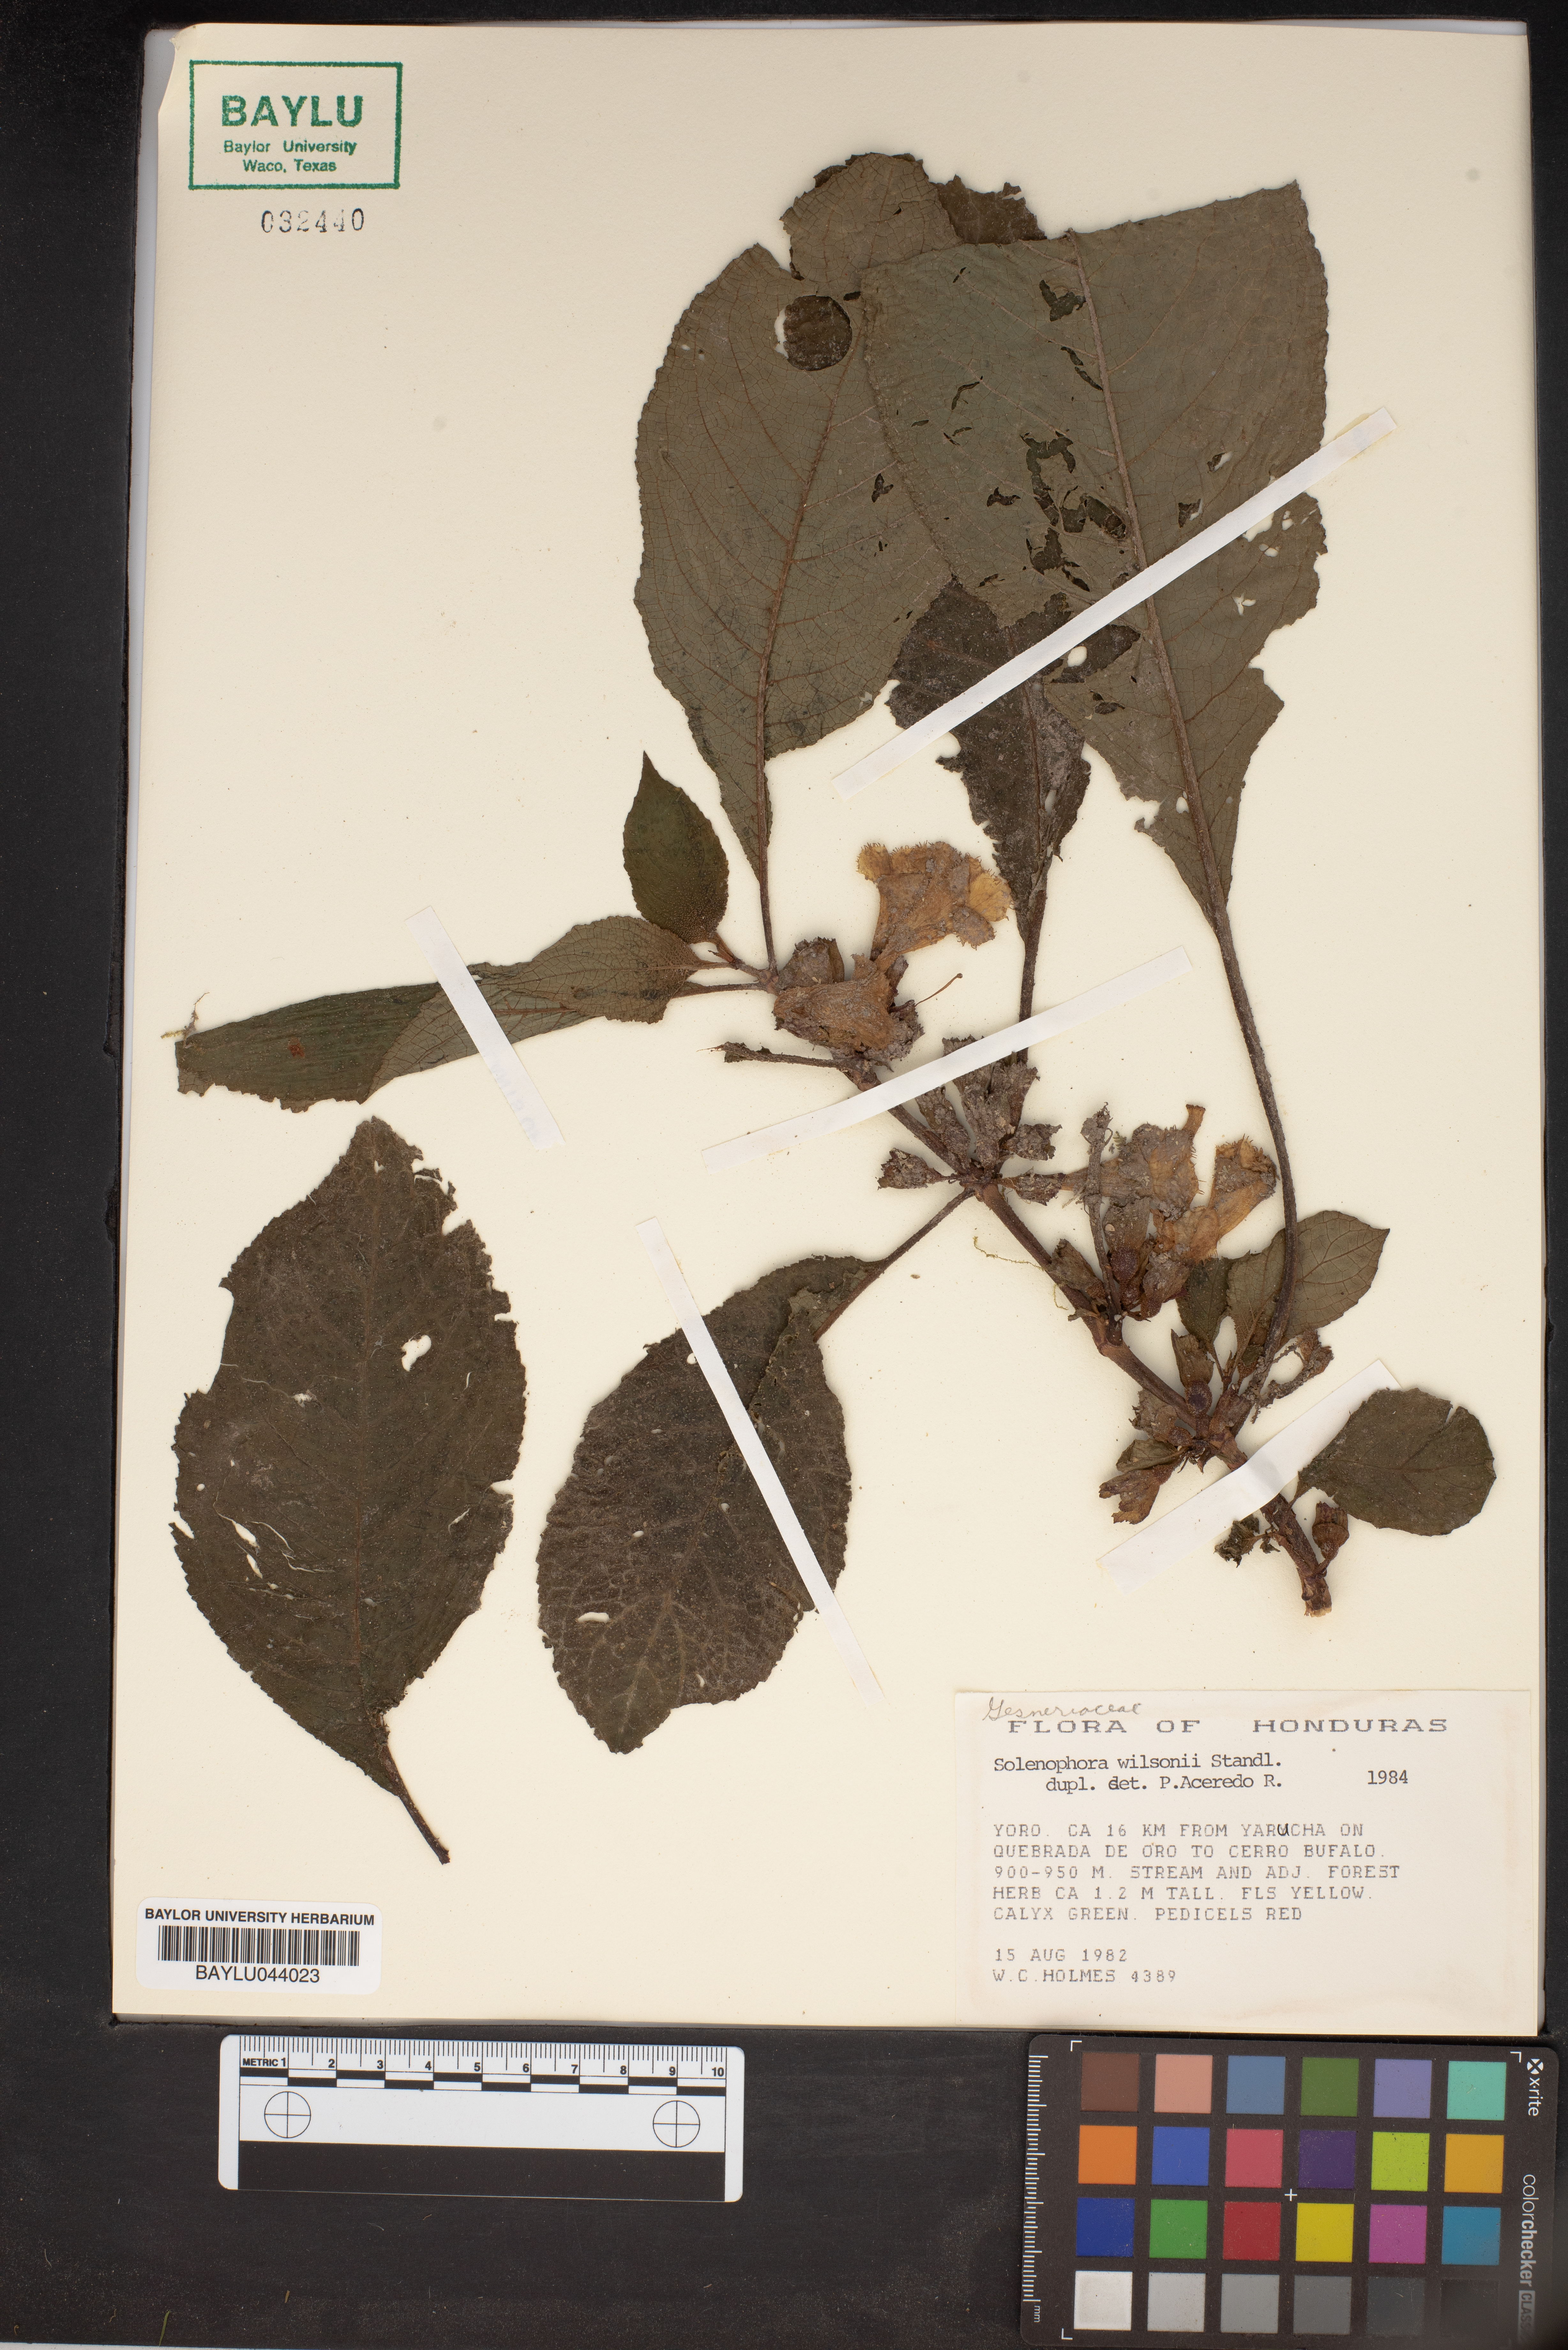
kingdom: Plantae
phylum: Tracheophyta
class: Magnoliopsida
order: Lamiales
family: Gesneriaceae
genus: Solenophora
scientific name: Solenophora obscura
